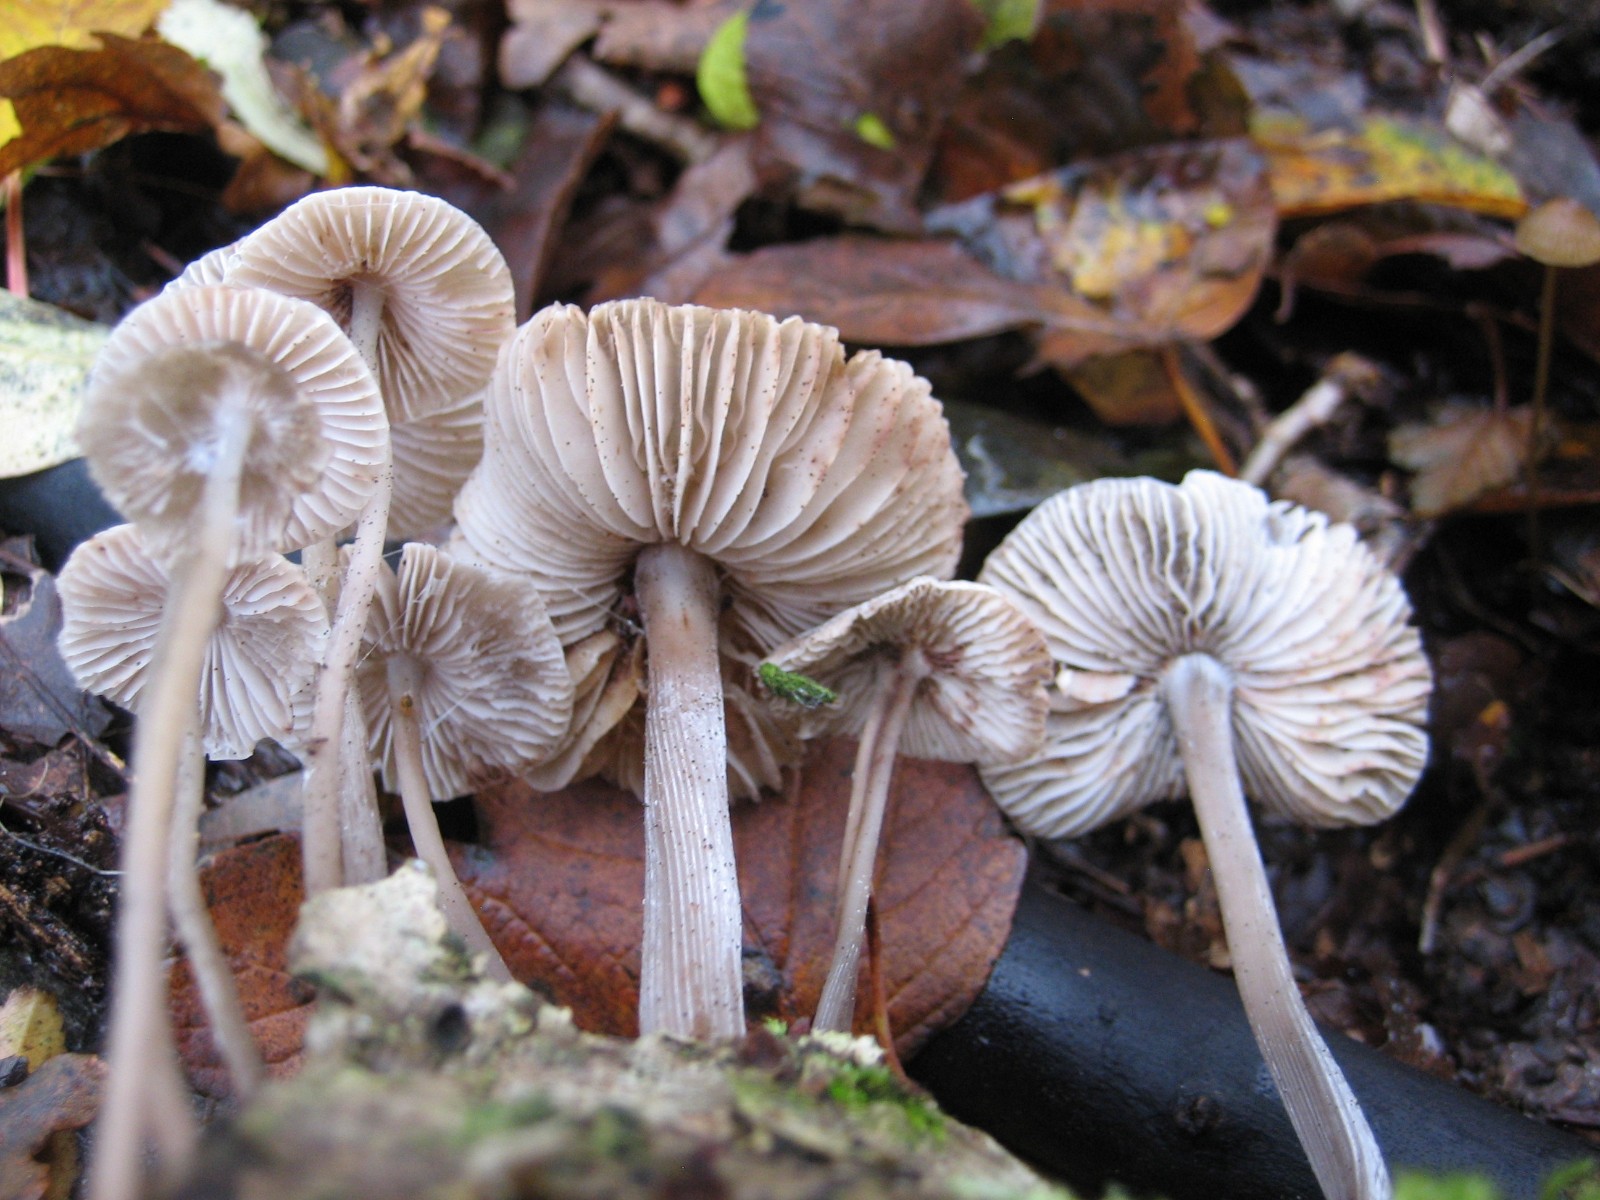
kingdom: Fungi
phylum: Basidiomycota
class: Agaricomycetes
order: Agaricales
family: Mycenaceae
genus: Mycena
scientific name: Mycena galericulata
